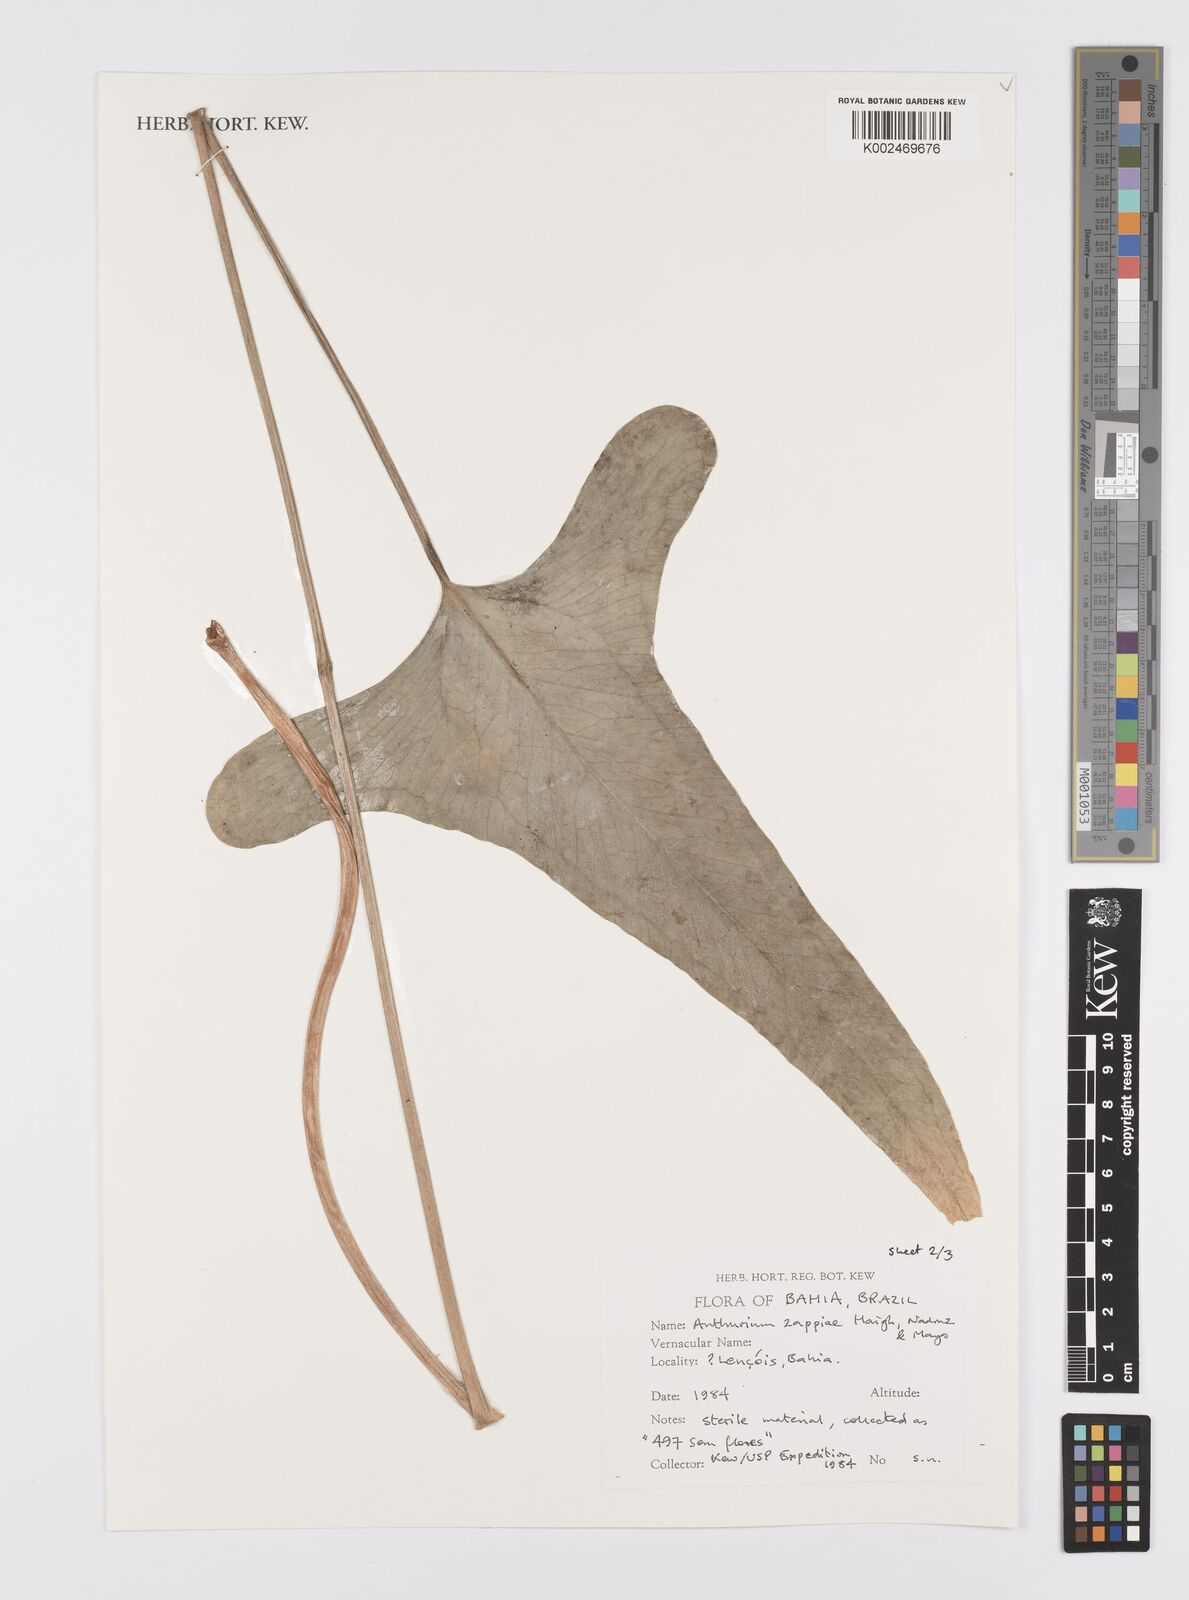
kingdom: Plantae
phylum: Tracheophyta
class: Liliopsida
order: Alismatales
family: Araceae
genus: Anthurium
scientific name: Anthurium zappiae
